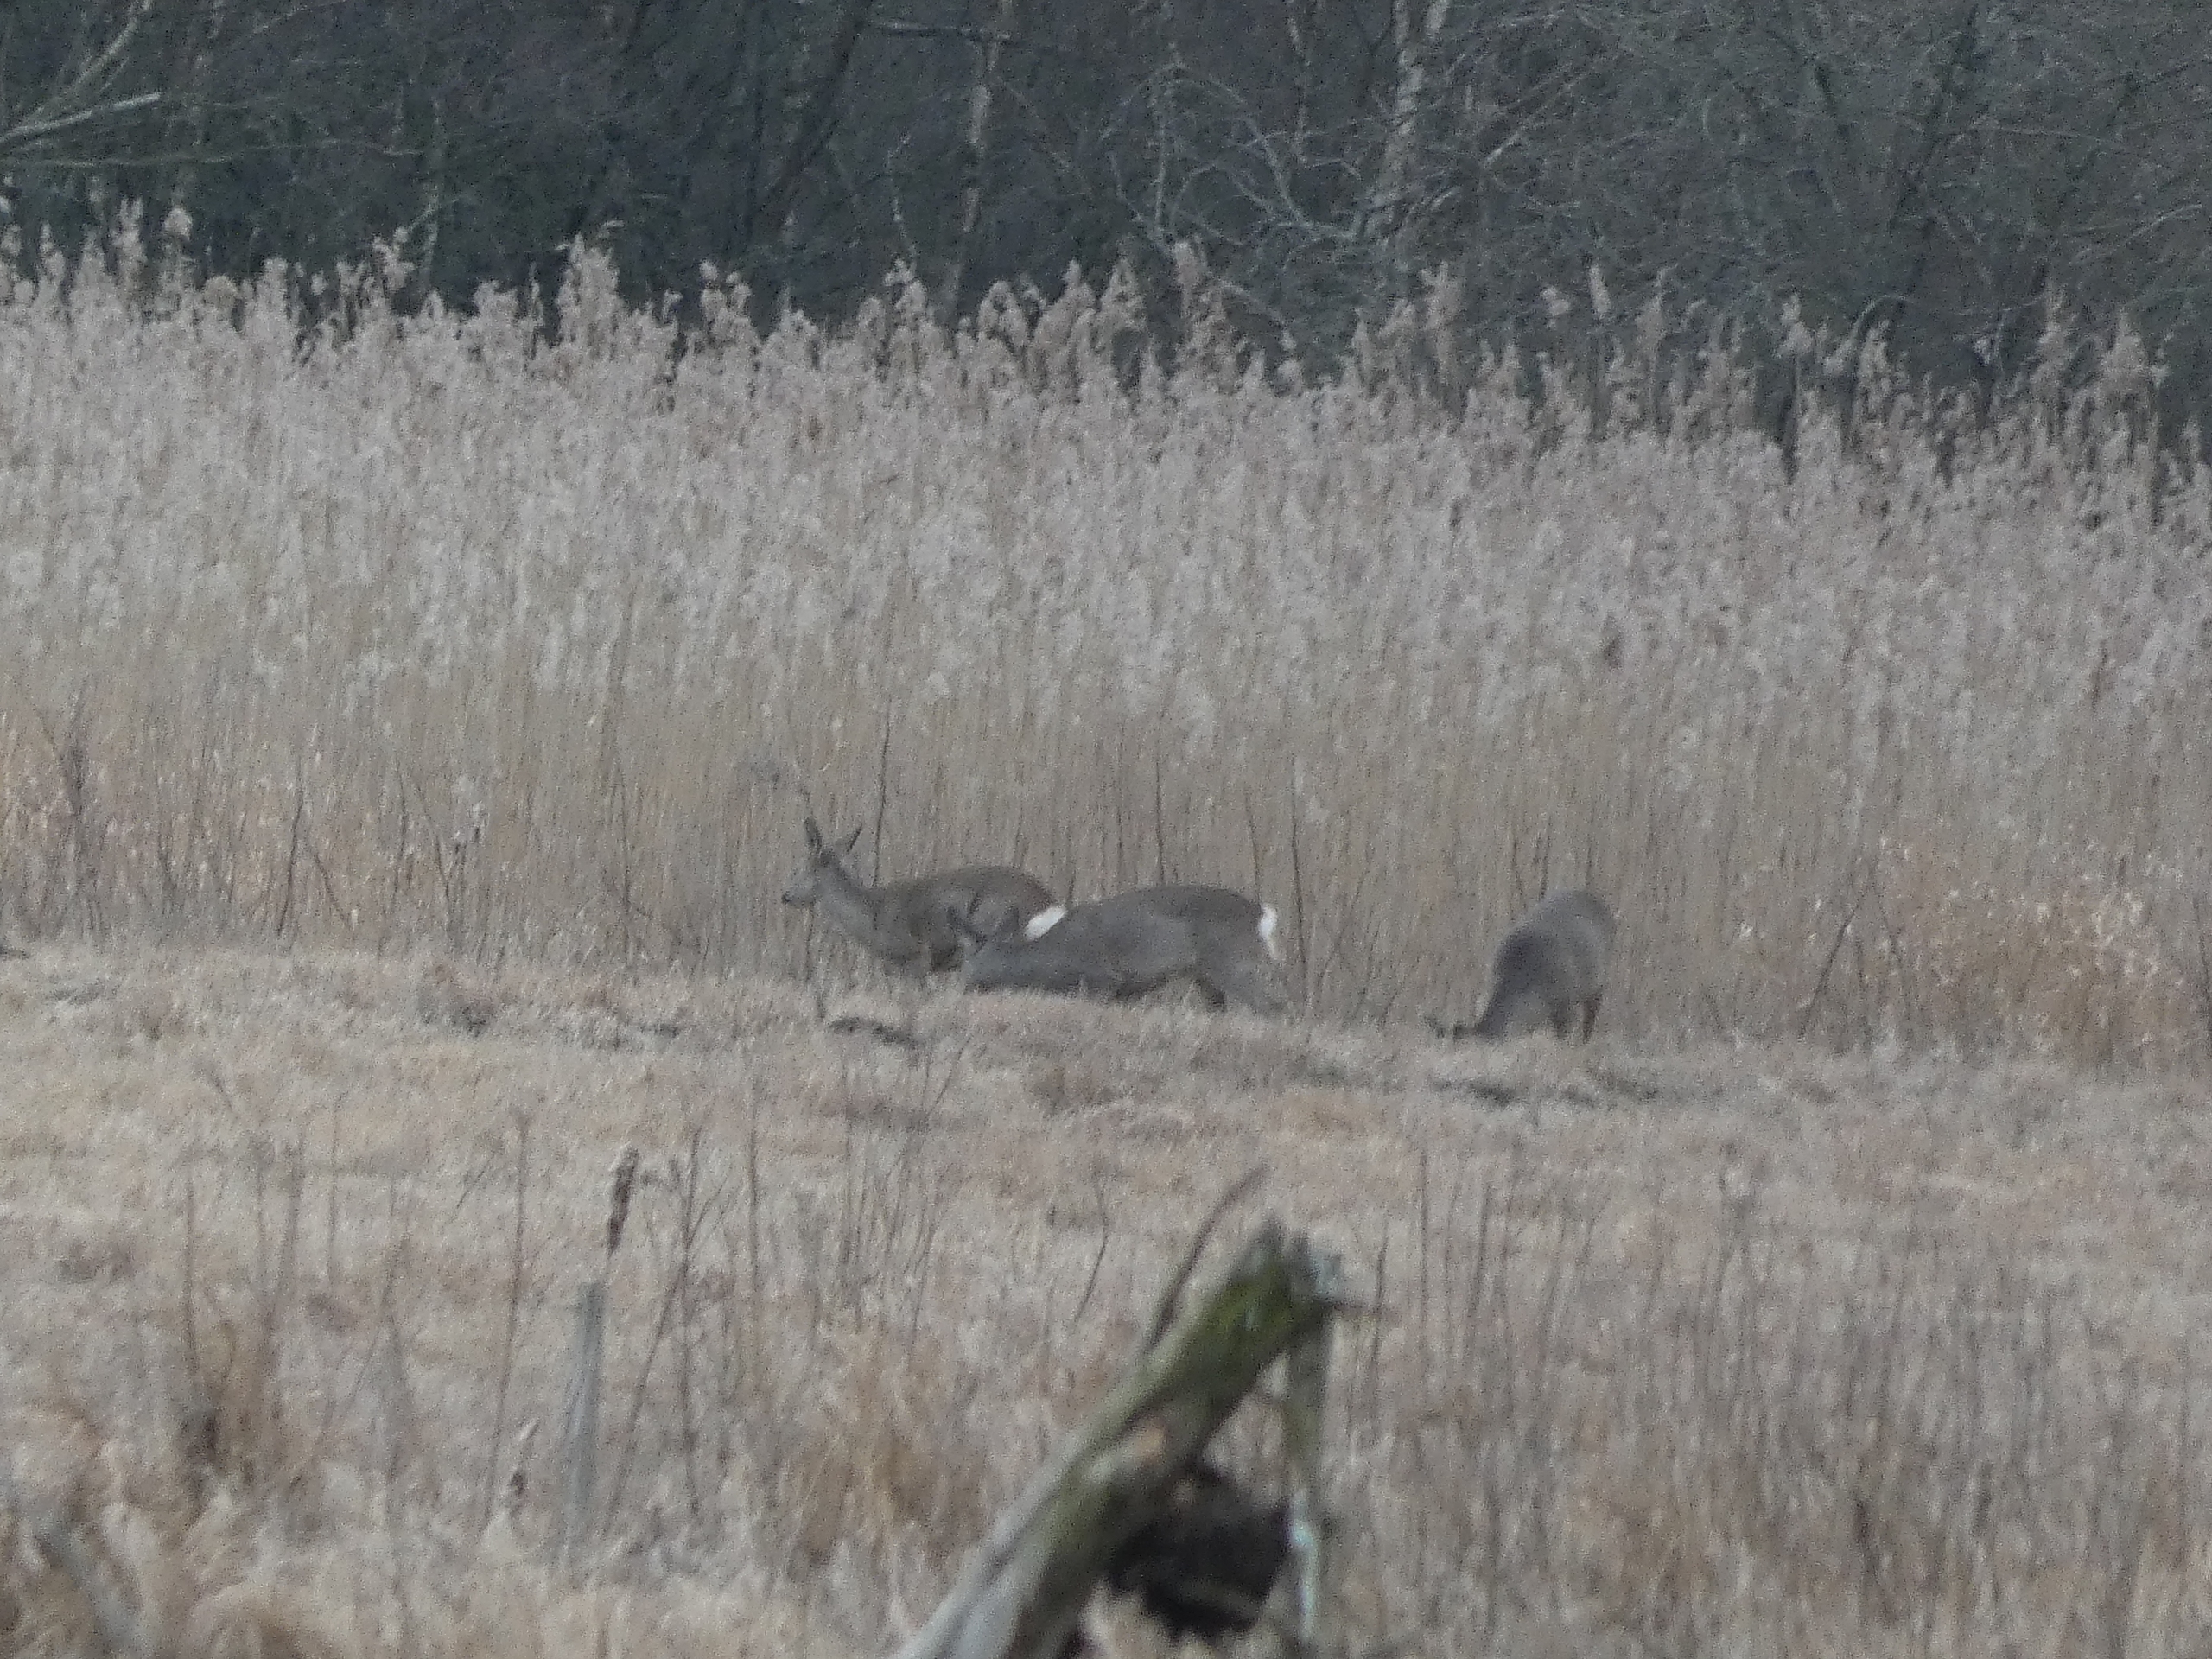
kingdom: Animalia
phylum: Chordata
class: Mammalia
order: Artiodactyla
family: Cervidae
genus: Capreolus
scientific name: Capreolus capreolus
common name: Rådyr
